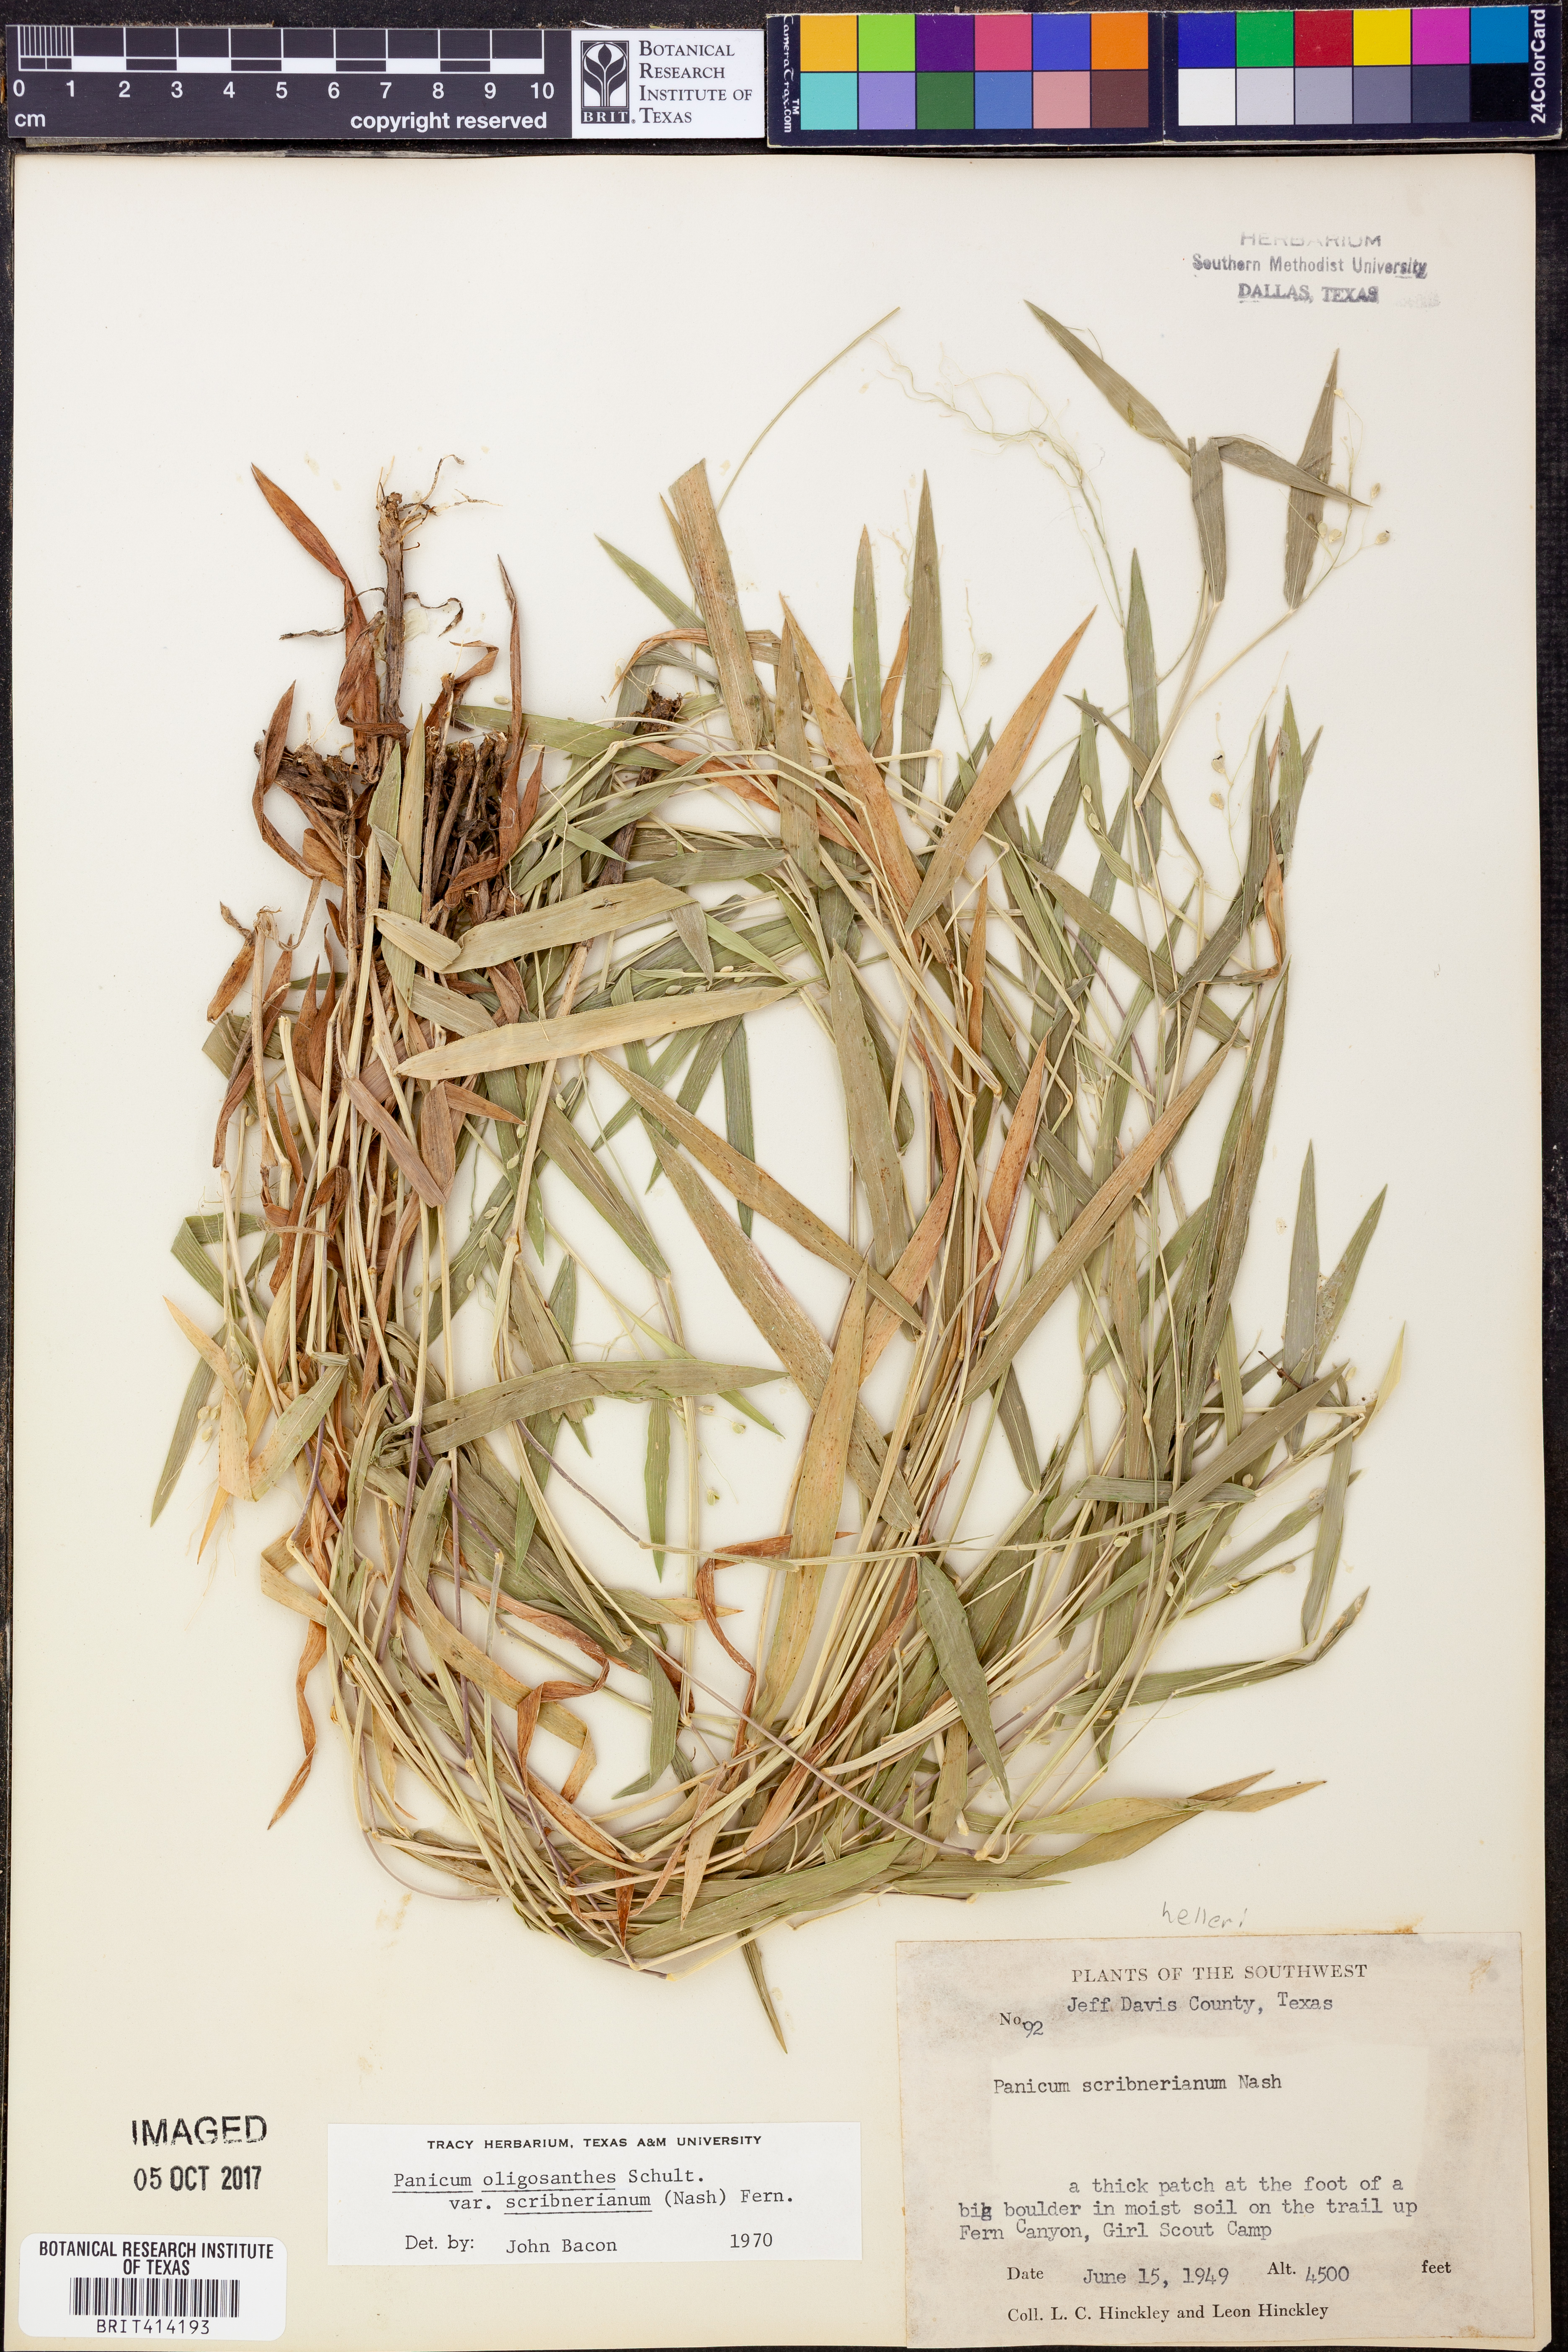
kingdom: Plantae
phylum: Tracheophyta
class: Liliopsida
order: Poales
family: Poaceae
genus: Dichanthelium
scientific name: Dichanthelium scribnerianum
